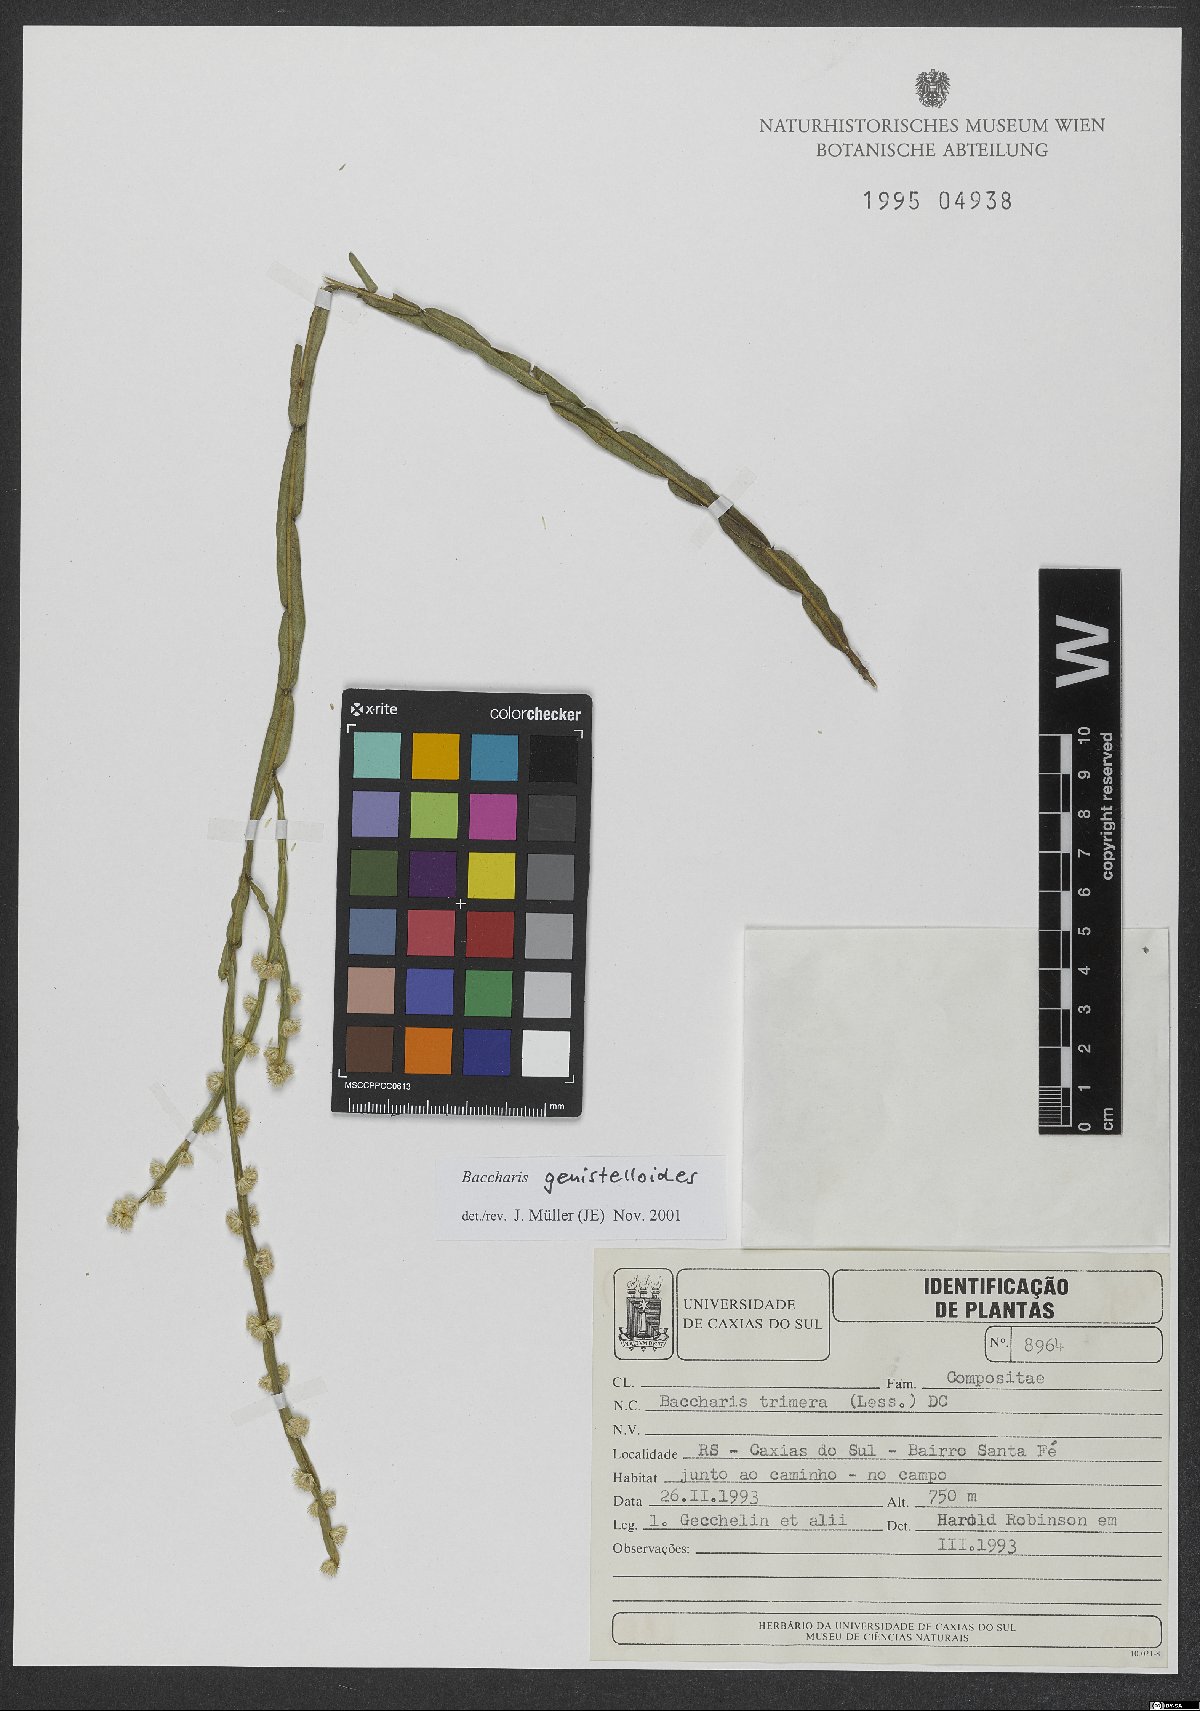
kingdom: Plantae
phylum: Tracheophyta
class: Magnoliopsida
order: Asterales
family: Asteraceae
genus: Baccharis
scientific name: Baccharis genistelloides
